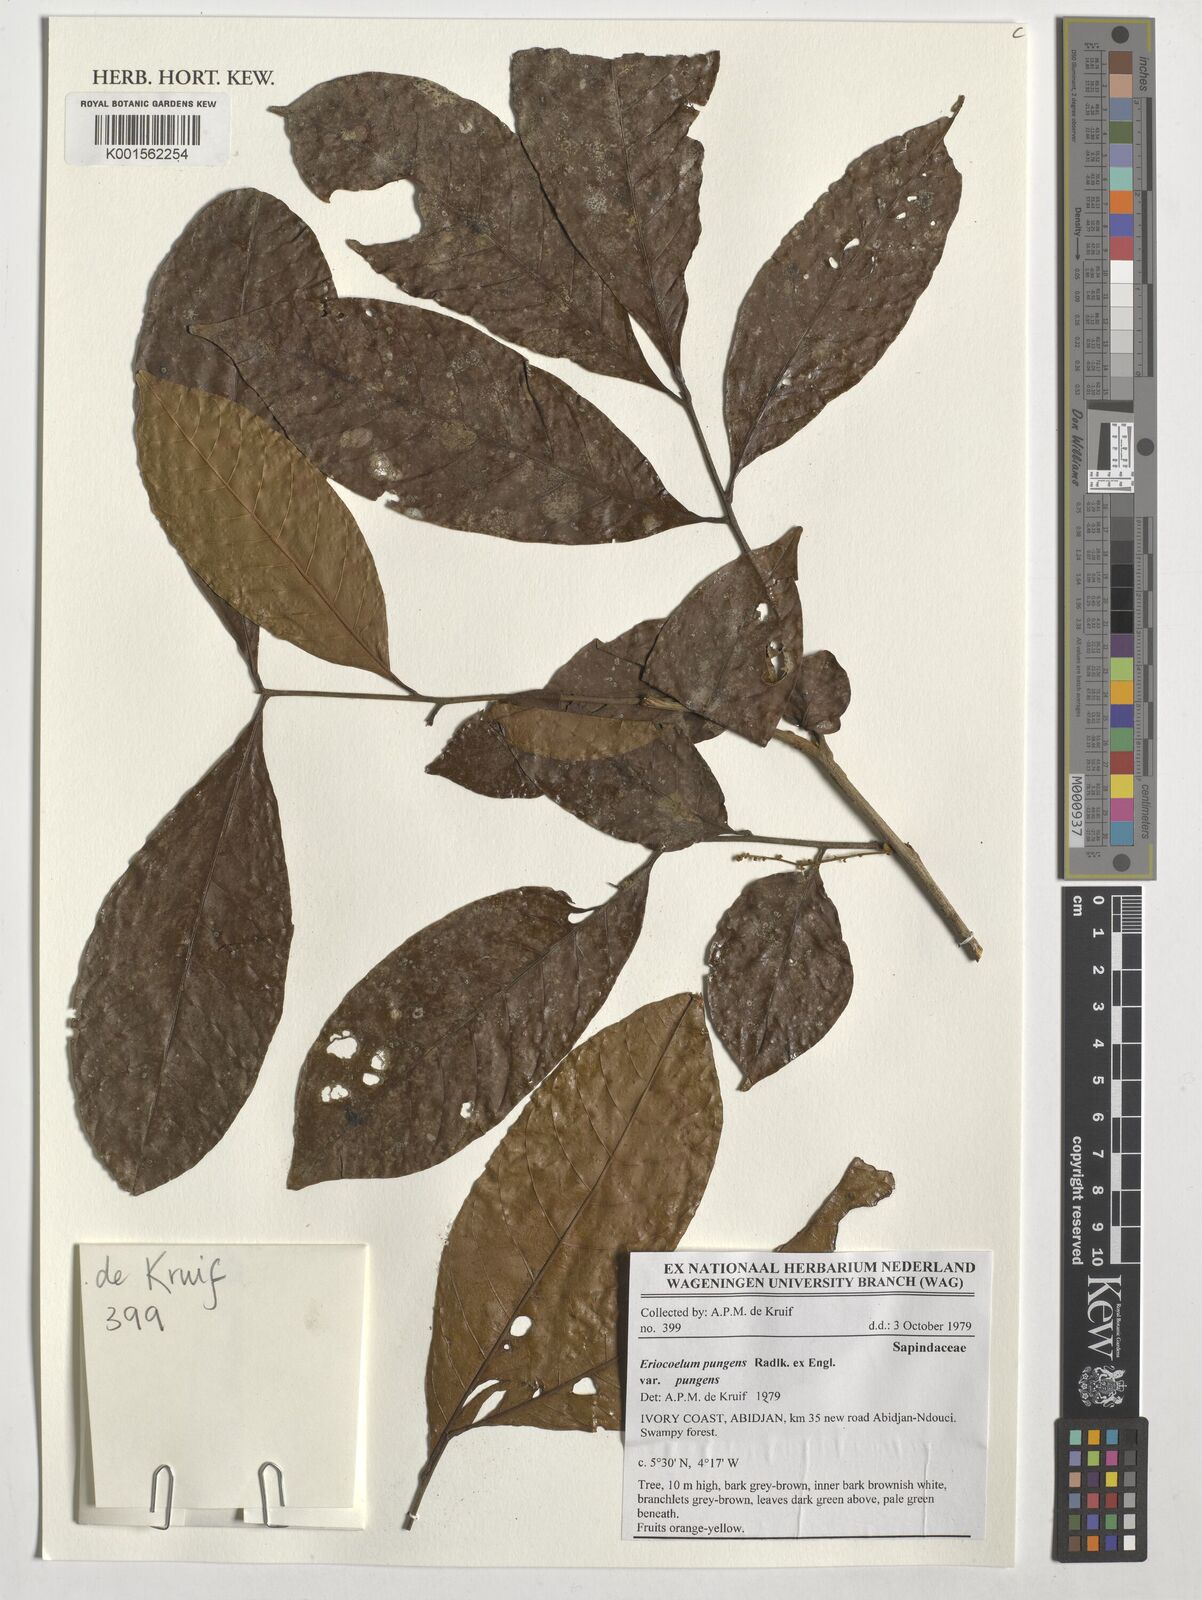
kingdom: Plantae
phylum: Tracheophyta
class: Magnoliopsida
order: Sapindales
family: Sapindaceae
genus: Eriocoelum
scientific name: Eriocoelum pungens
